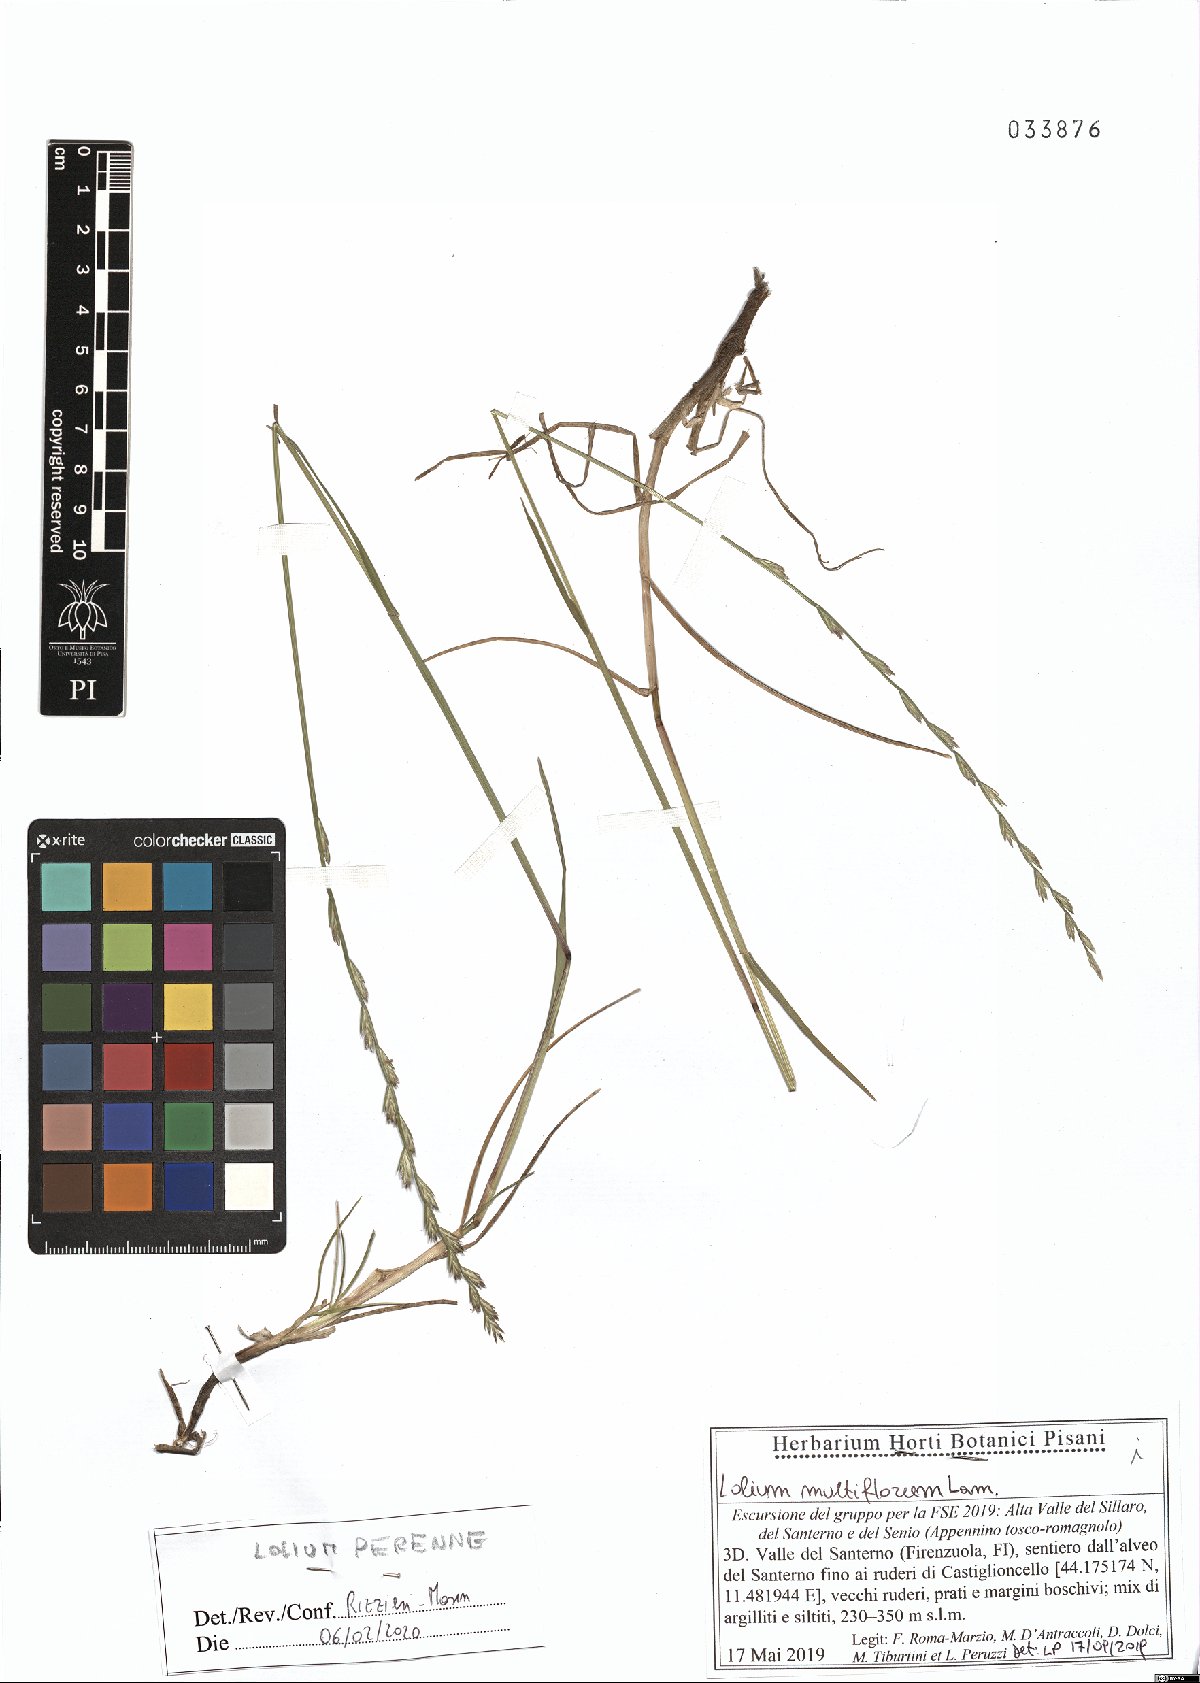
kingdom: Plantae
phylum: Tracheophyta
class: Liliopsida
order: Poales
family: Poaceae
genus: Lolium
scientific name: Lolium perenne
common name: Perennial ryegrass
